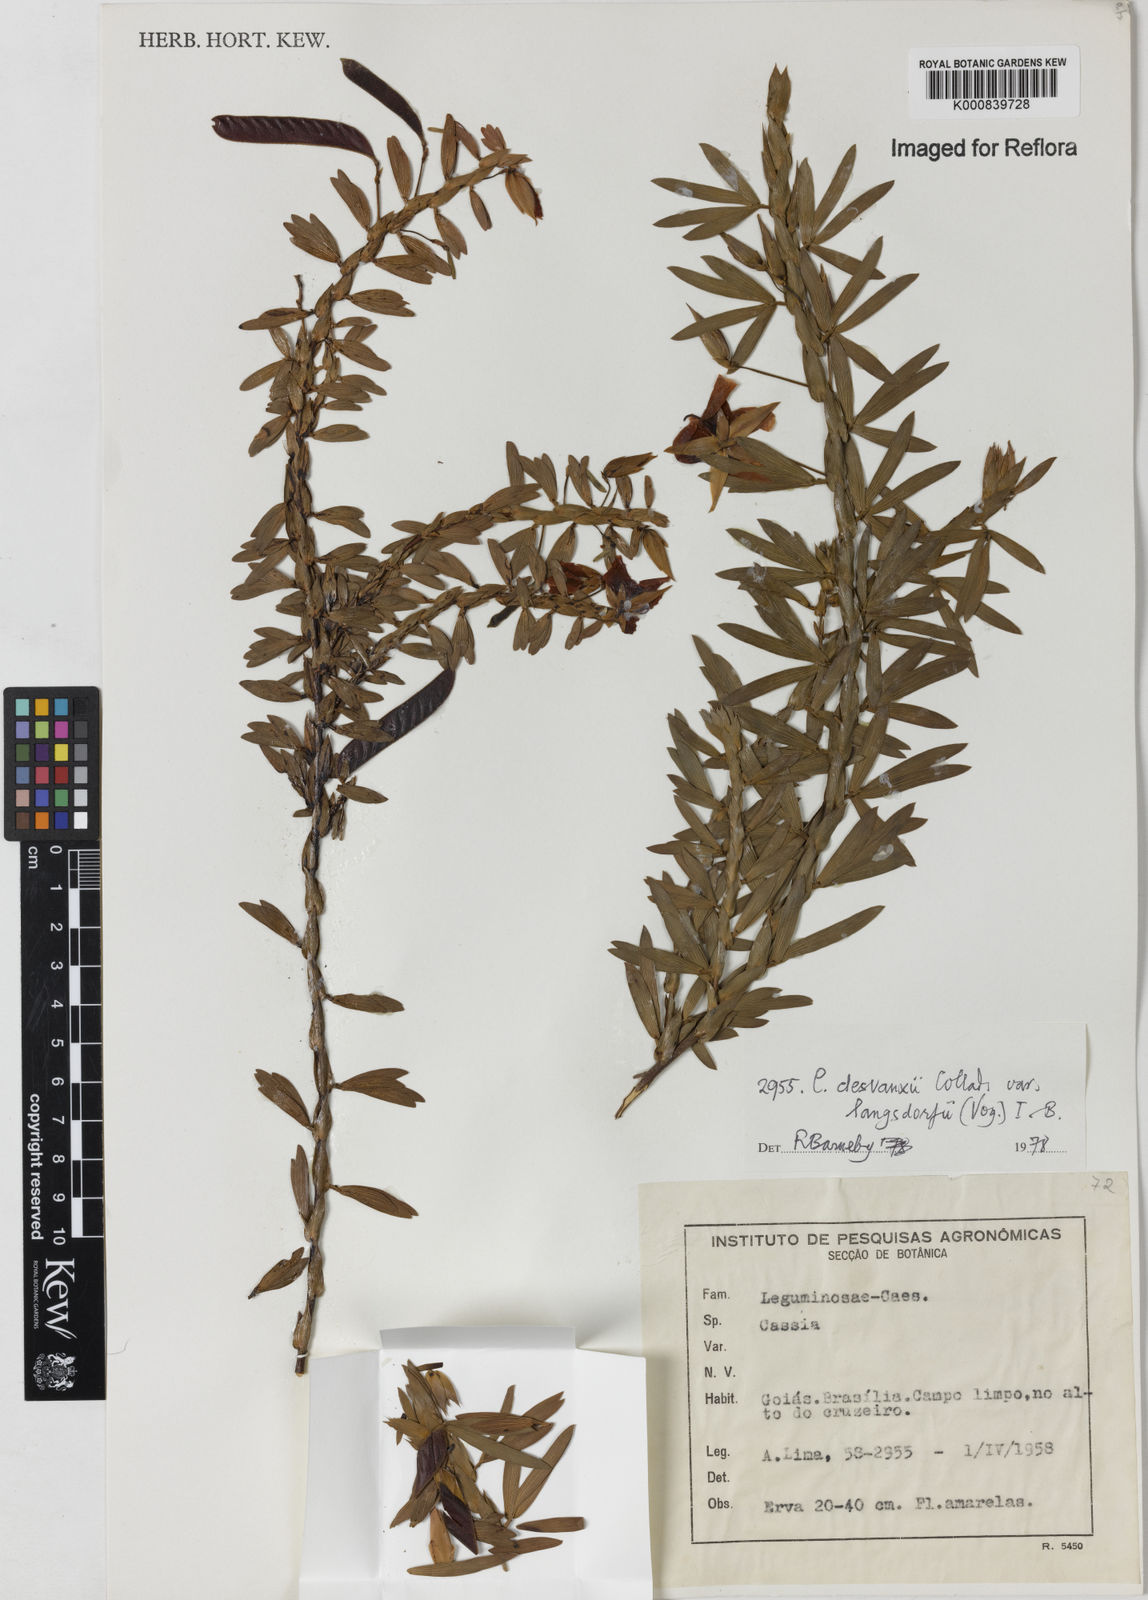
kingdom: Plantae
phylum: Tracheophyta
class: Magnoliopsida
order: Fabales
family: Fabaceae
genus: Chamaecrista
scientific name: Chamaecrista langsdorffii
